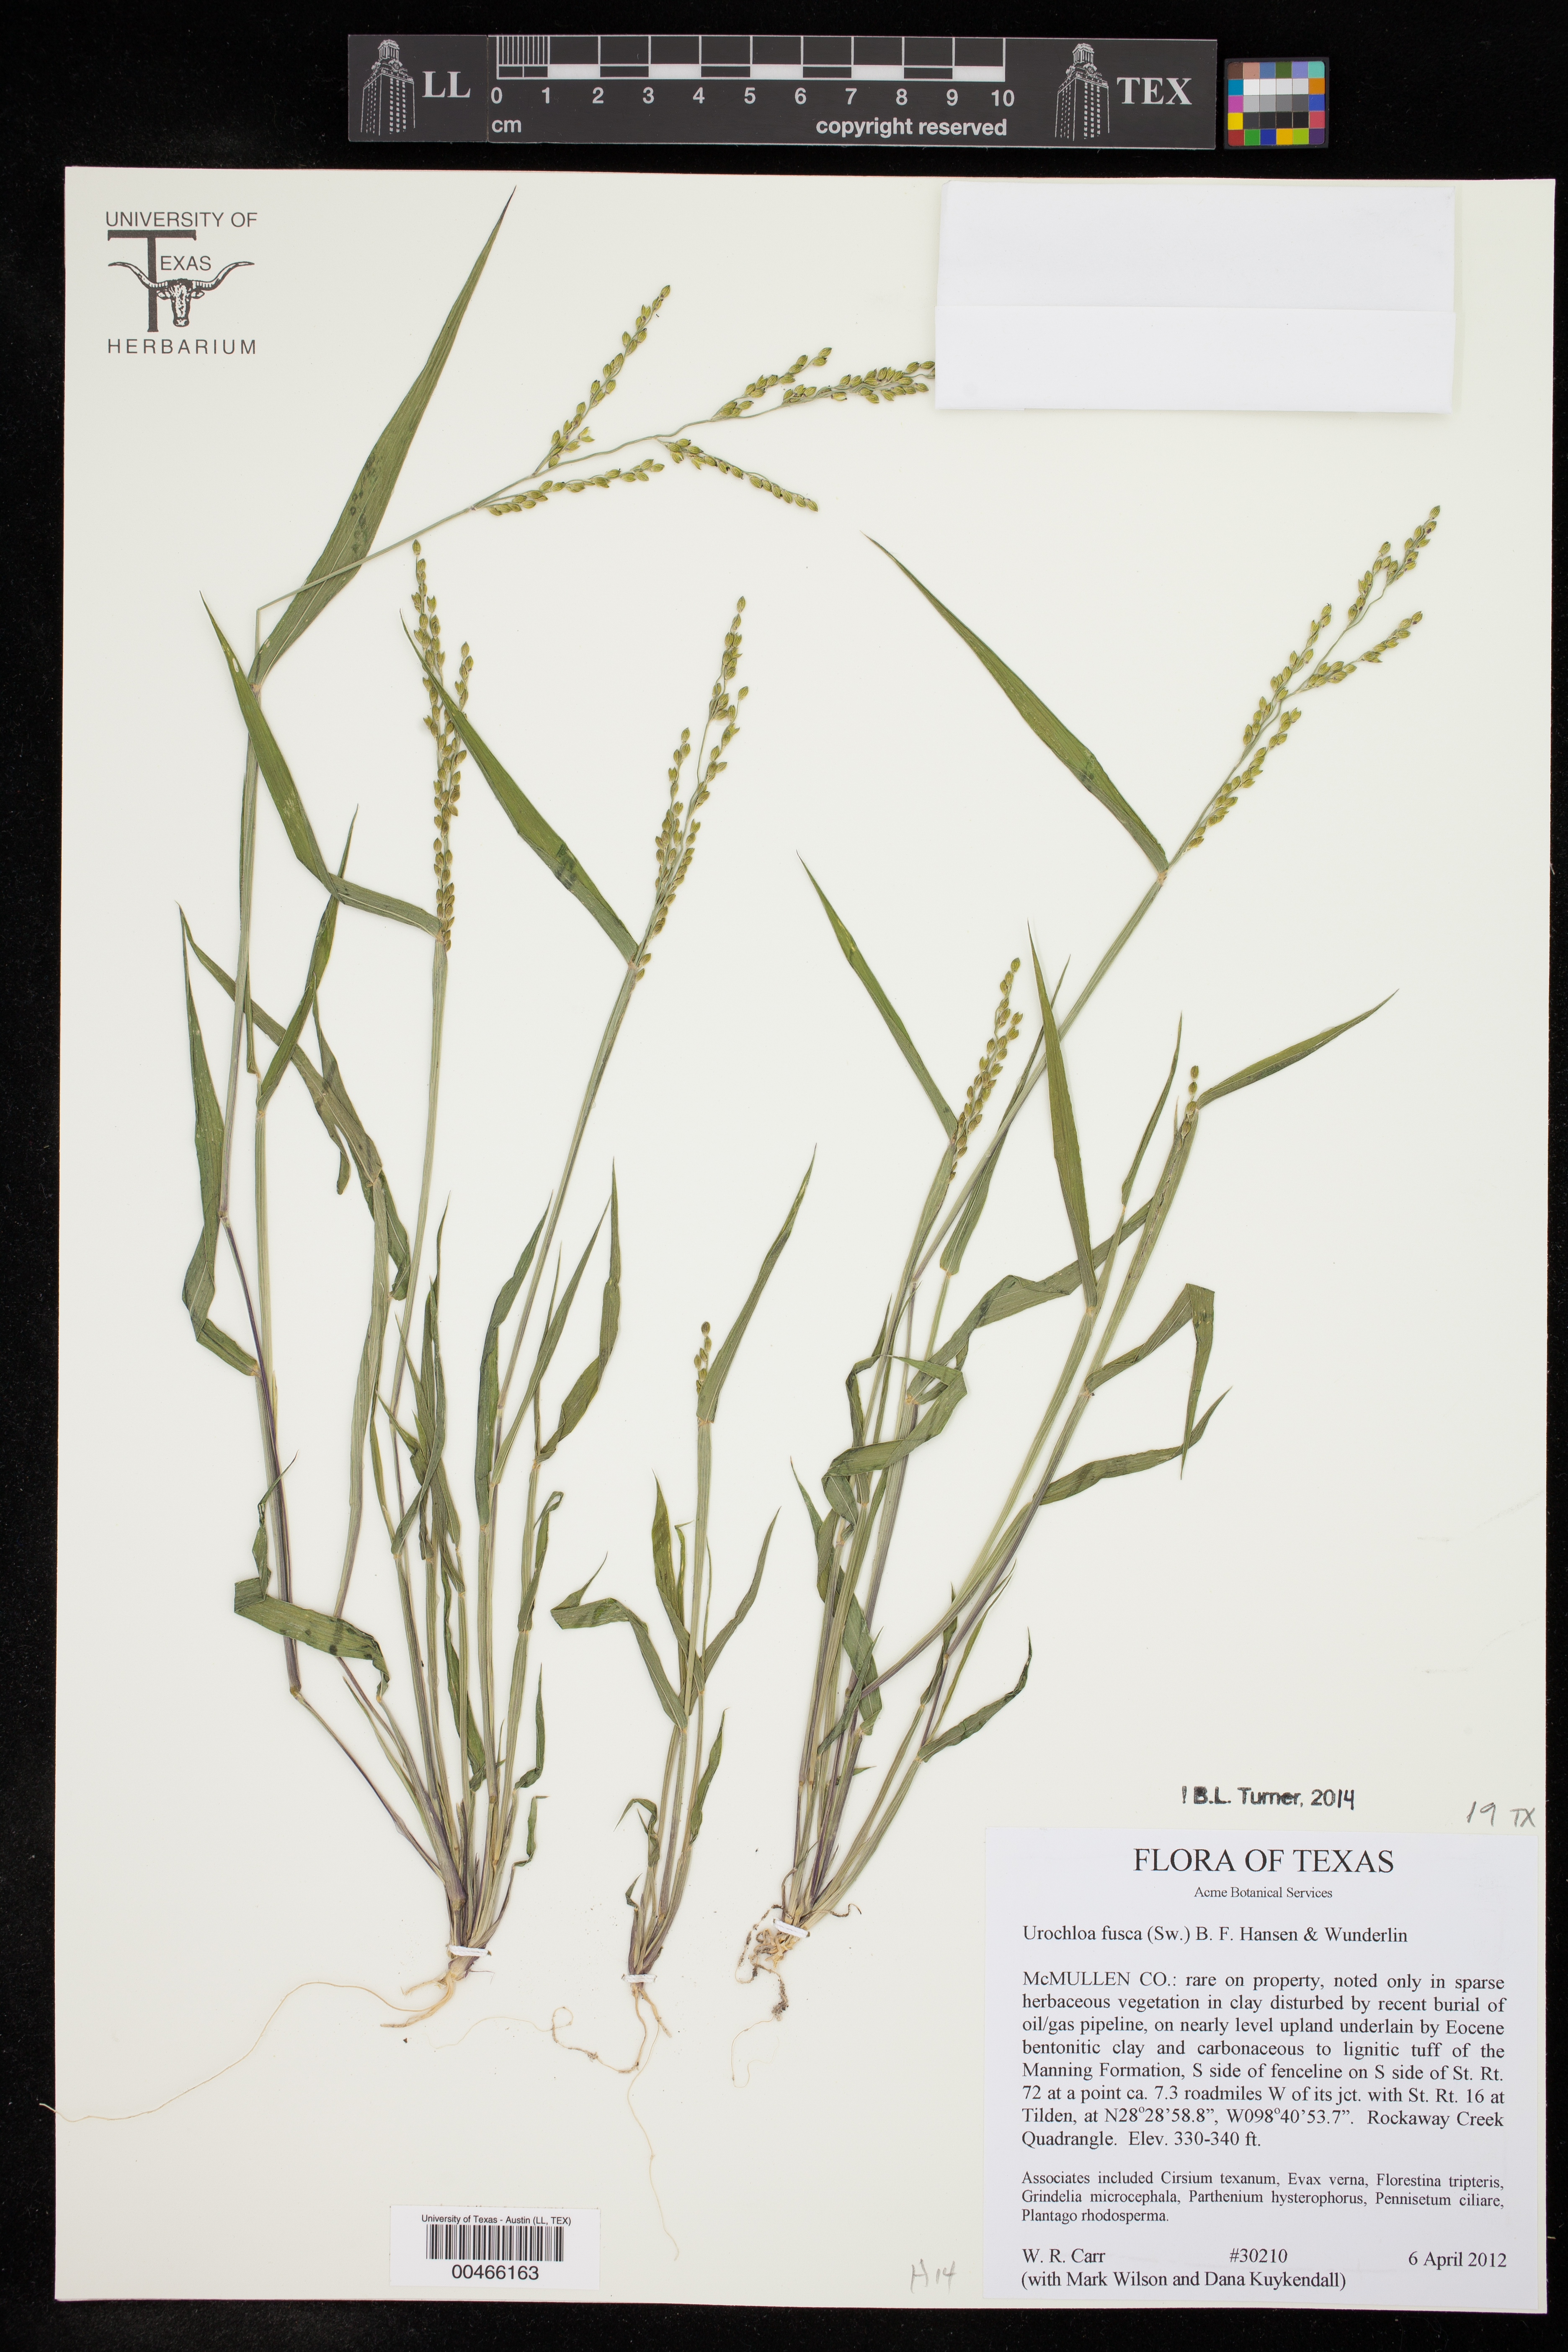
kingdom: Plantae
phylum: Tracheophyta
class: Liliopsida
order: Poales
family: Poaceae
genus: Urochloa
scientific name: Urochloa fusca
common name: Browntop signal grass
